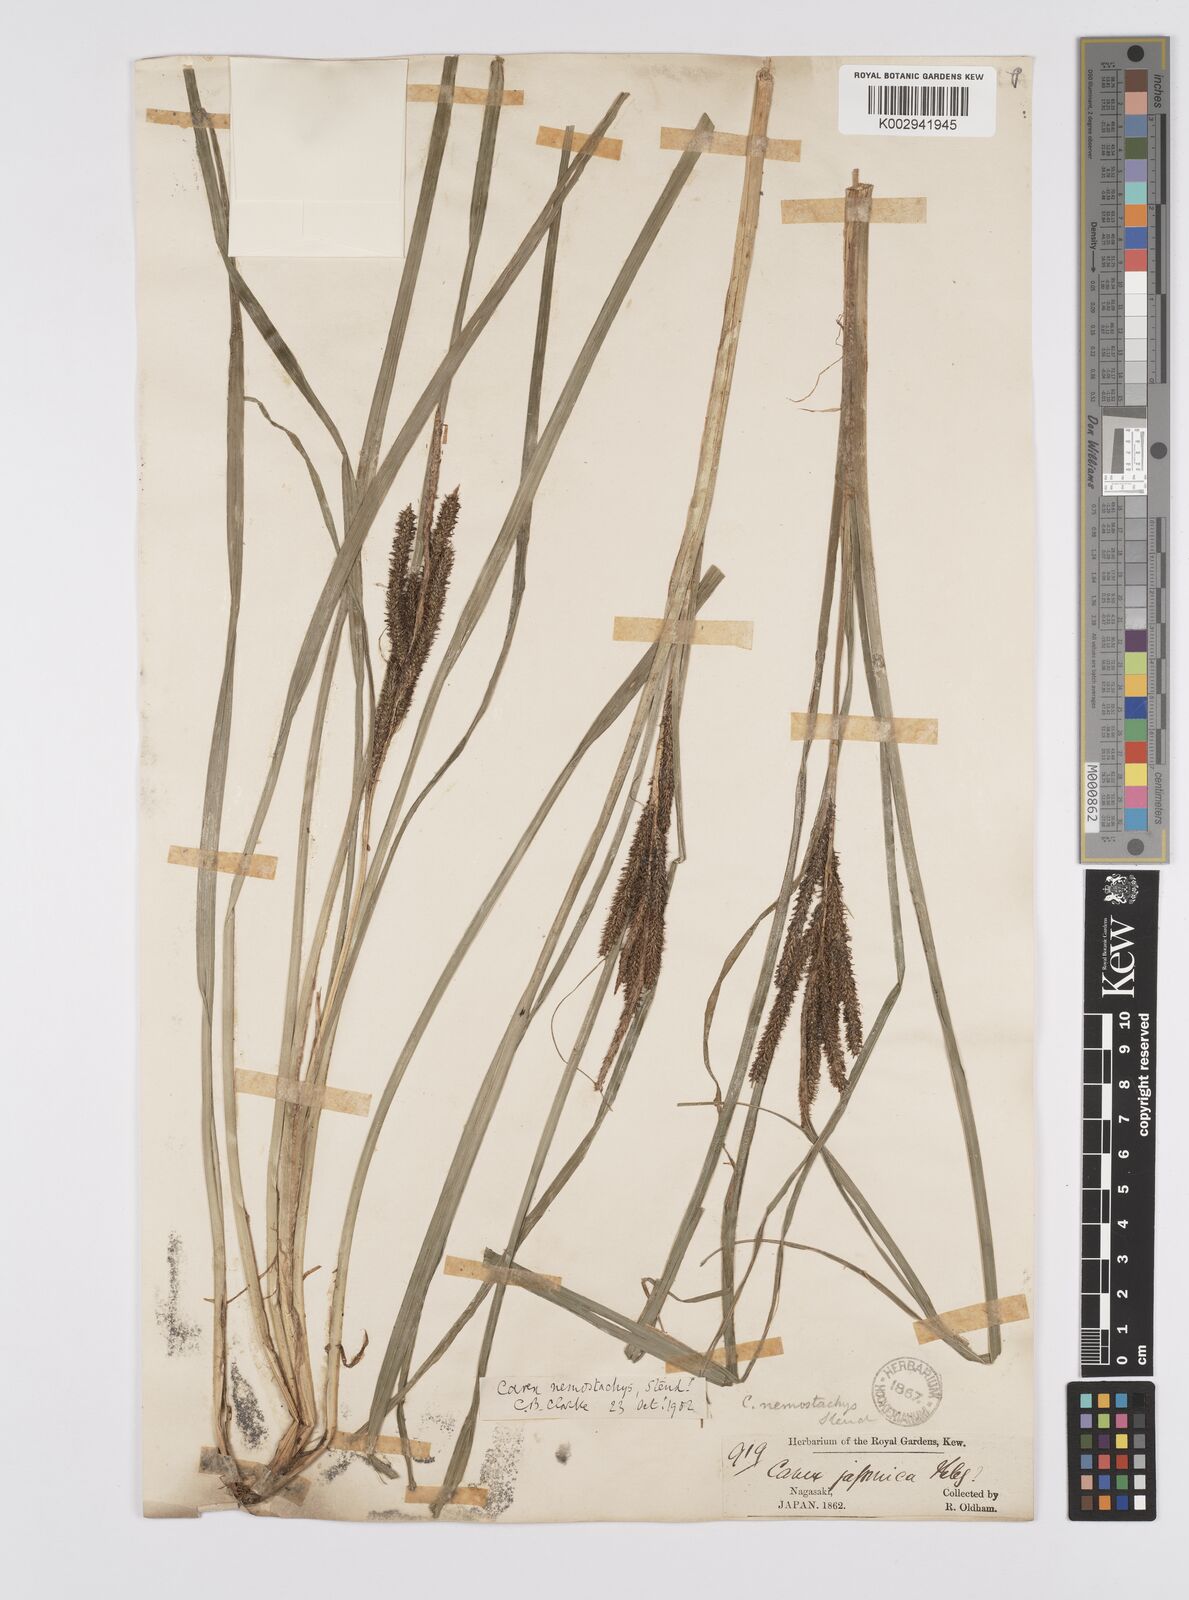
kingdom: Plantae
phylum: Tracheophyta
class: Liliopsida
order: Poales
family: Cyperaceae
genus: Carex
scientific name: Carex nemostachys
